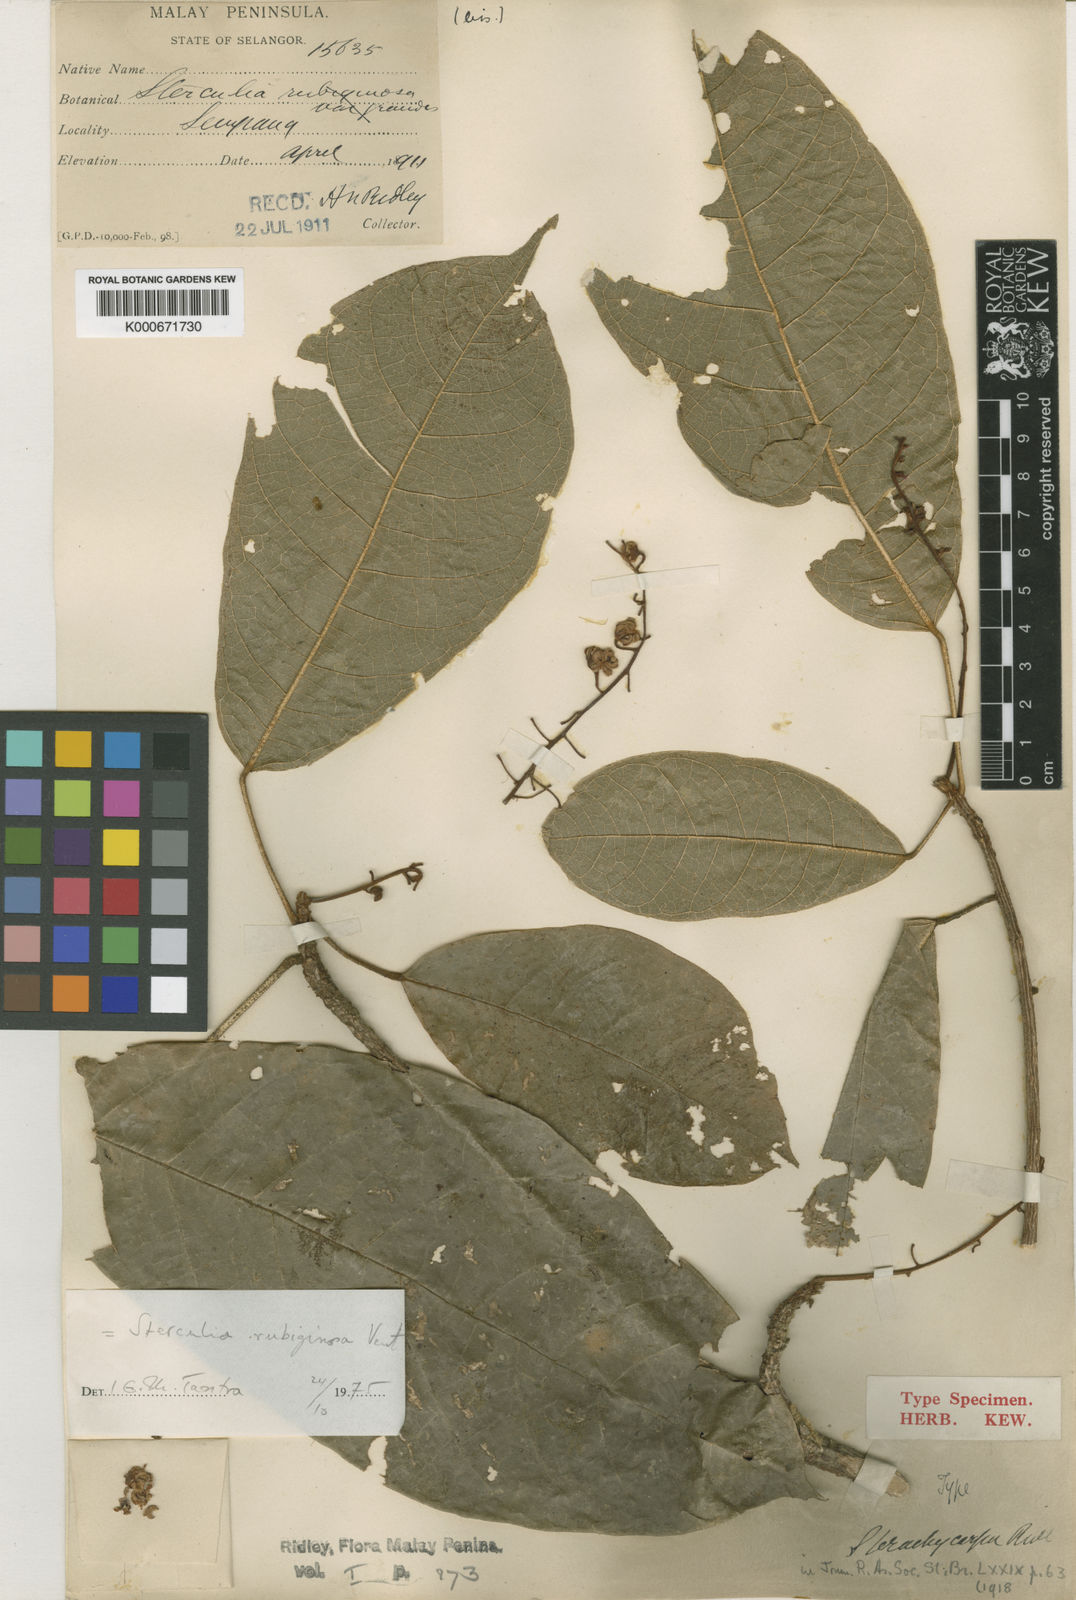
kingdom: Plantae
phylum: Tracheophyta
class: Magnoliopsida
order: Malvales
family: Malvaceae
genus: Sterculia
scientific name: Sterculia rubiginosa
